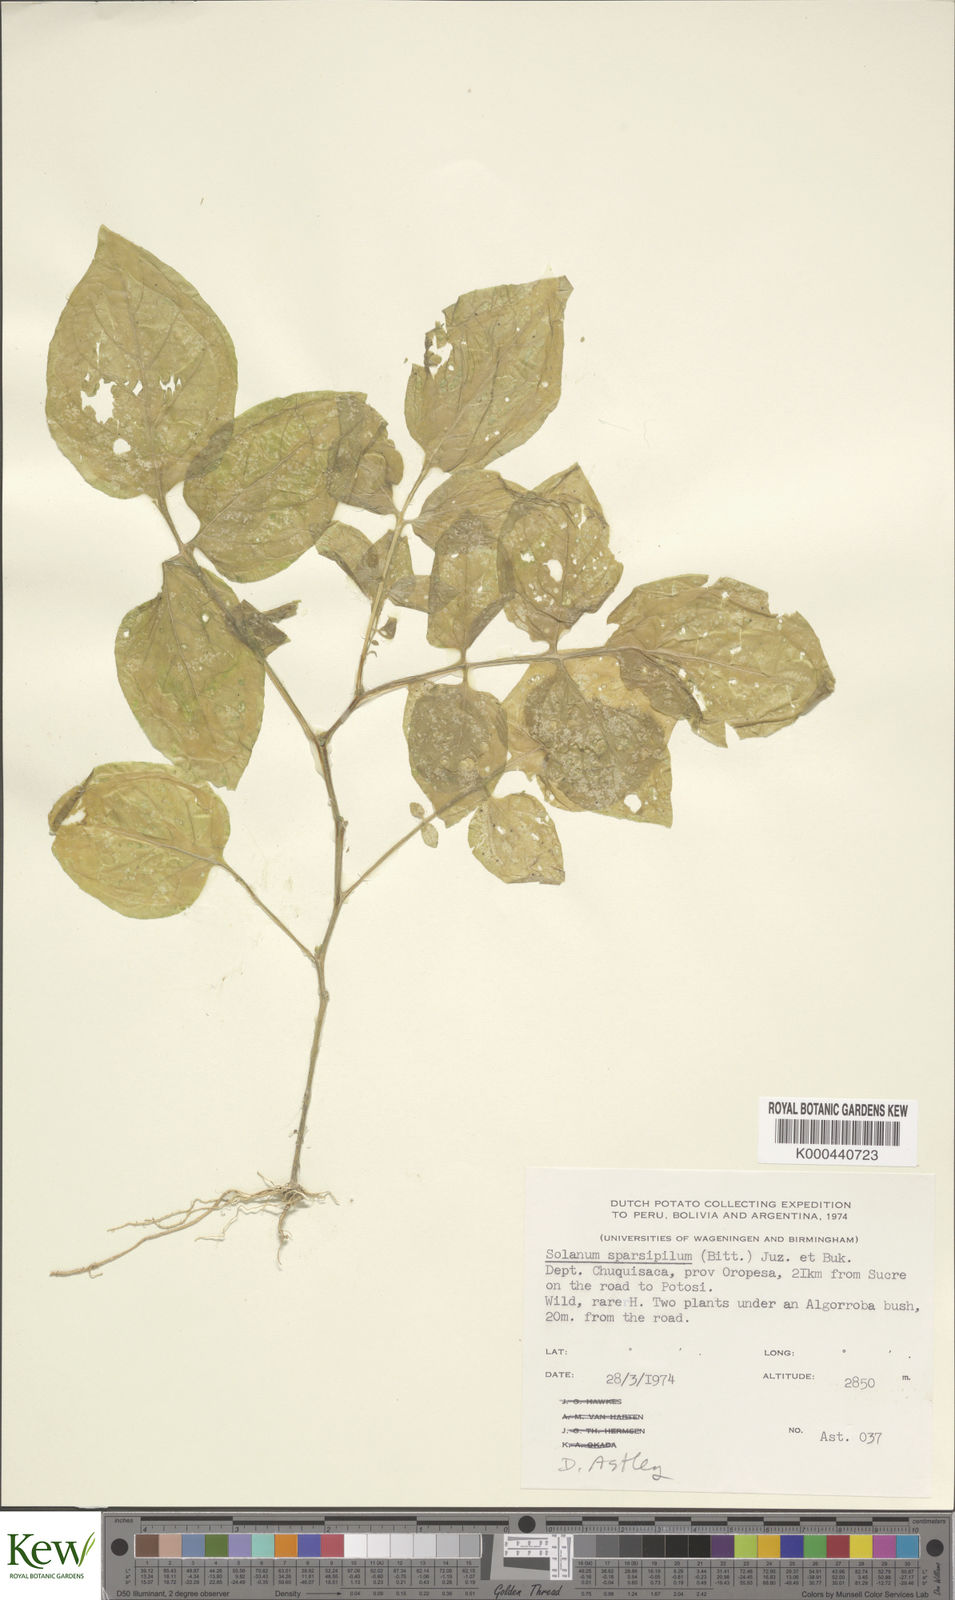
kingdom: Plantae
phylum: Tracheophyta
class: Magnoliopsida
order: Solanales
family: Solanaceae
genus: Solanum
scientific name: Solanum brevicaule
